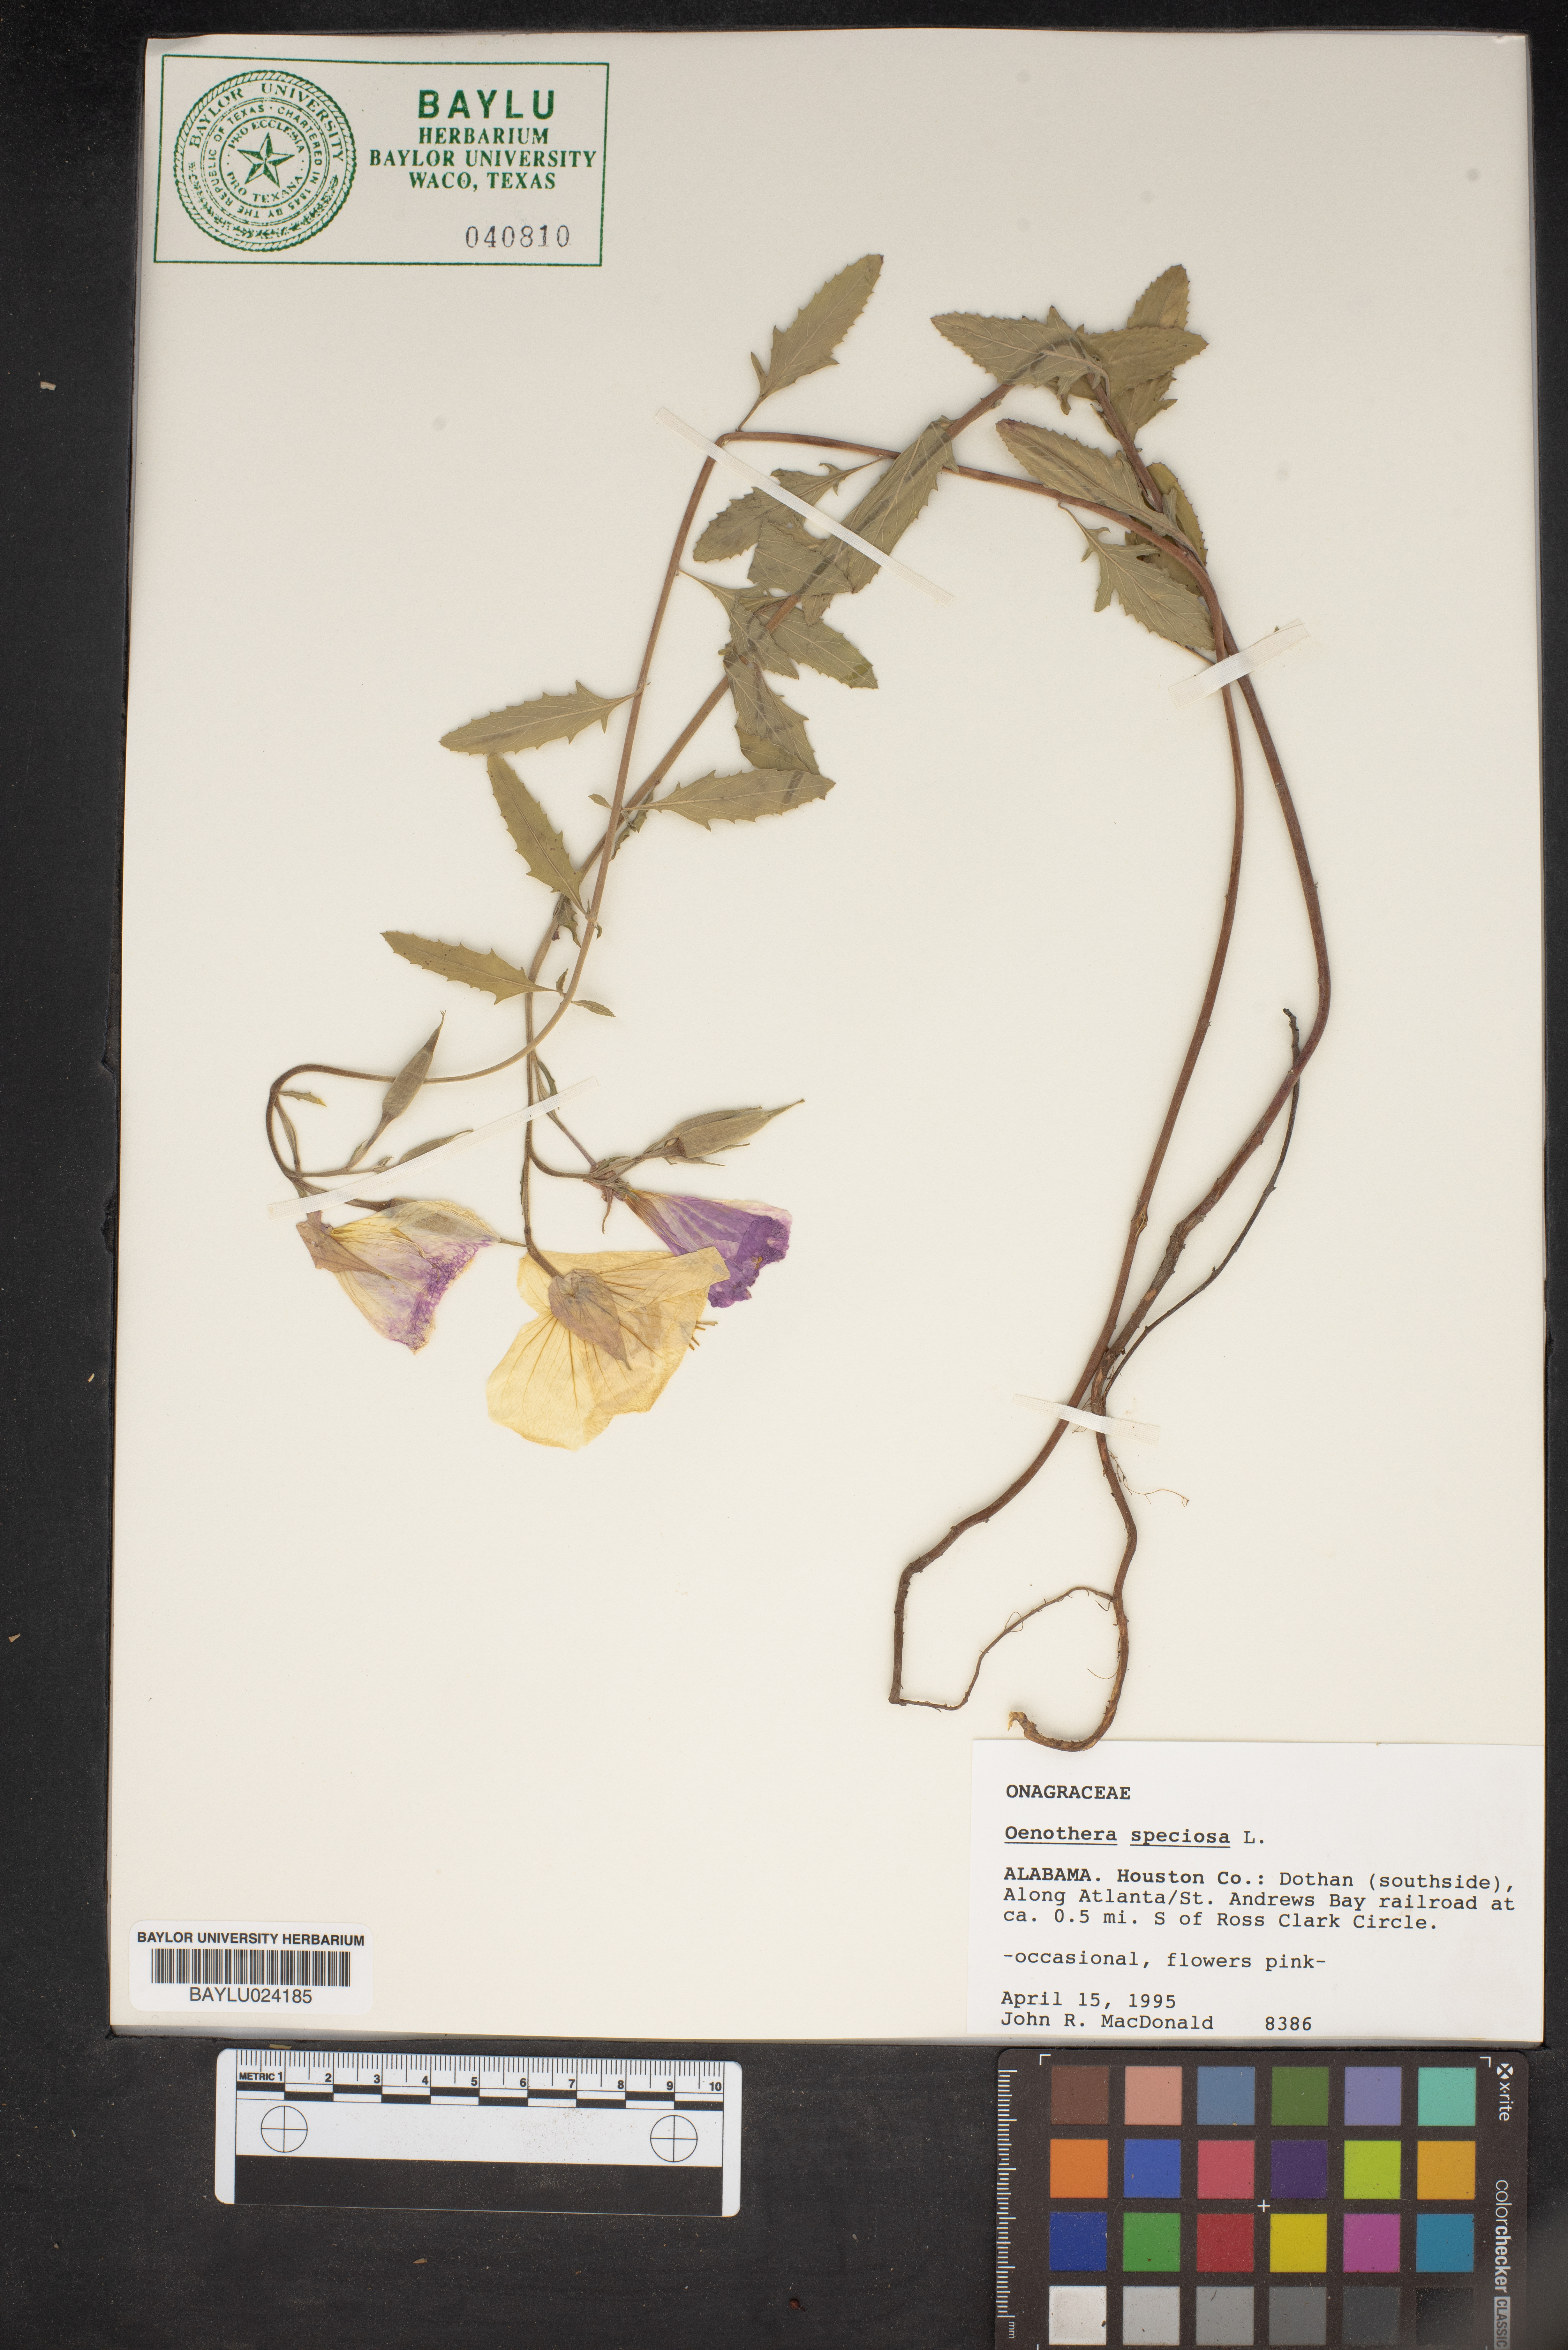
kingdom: Plantae
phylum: Tracheophyta
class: Magnoliopsida
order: Myrtales
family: Onagraceae
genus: Oenothera
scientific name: Oenothera speciosa
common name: White evening-primrose
